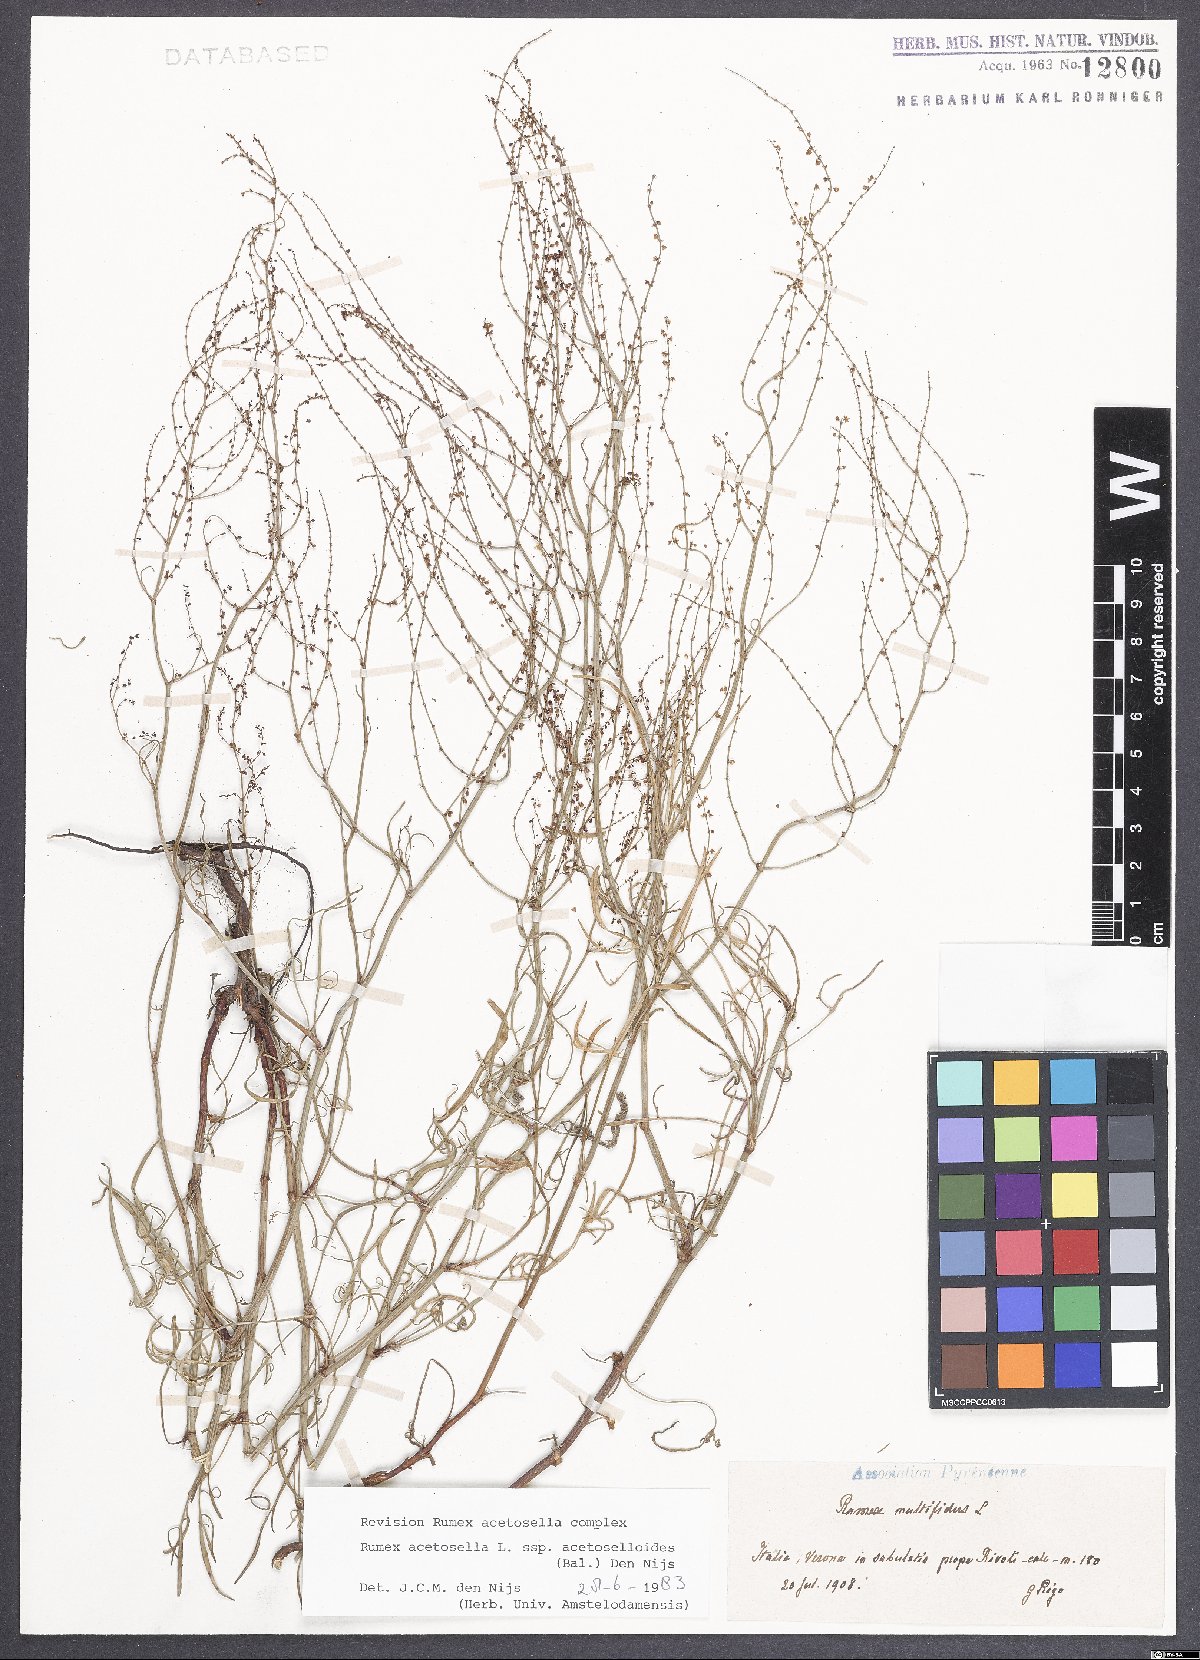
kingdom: Plantae
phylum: Tracheophyta
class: Magnoliopsida
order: Caryophyllales
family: Polygonaceae
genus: Rumex
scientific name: Rumex acetosella
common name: Common sheep sorrel
